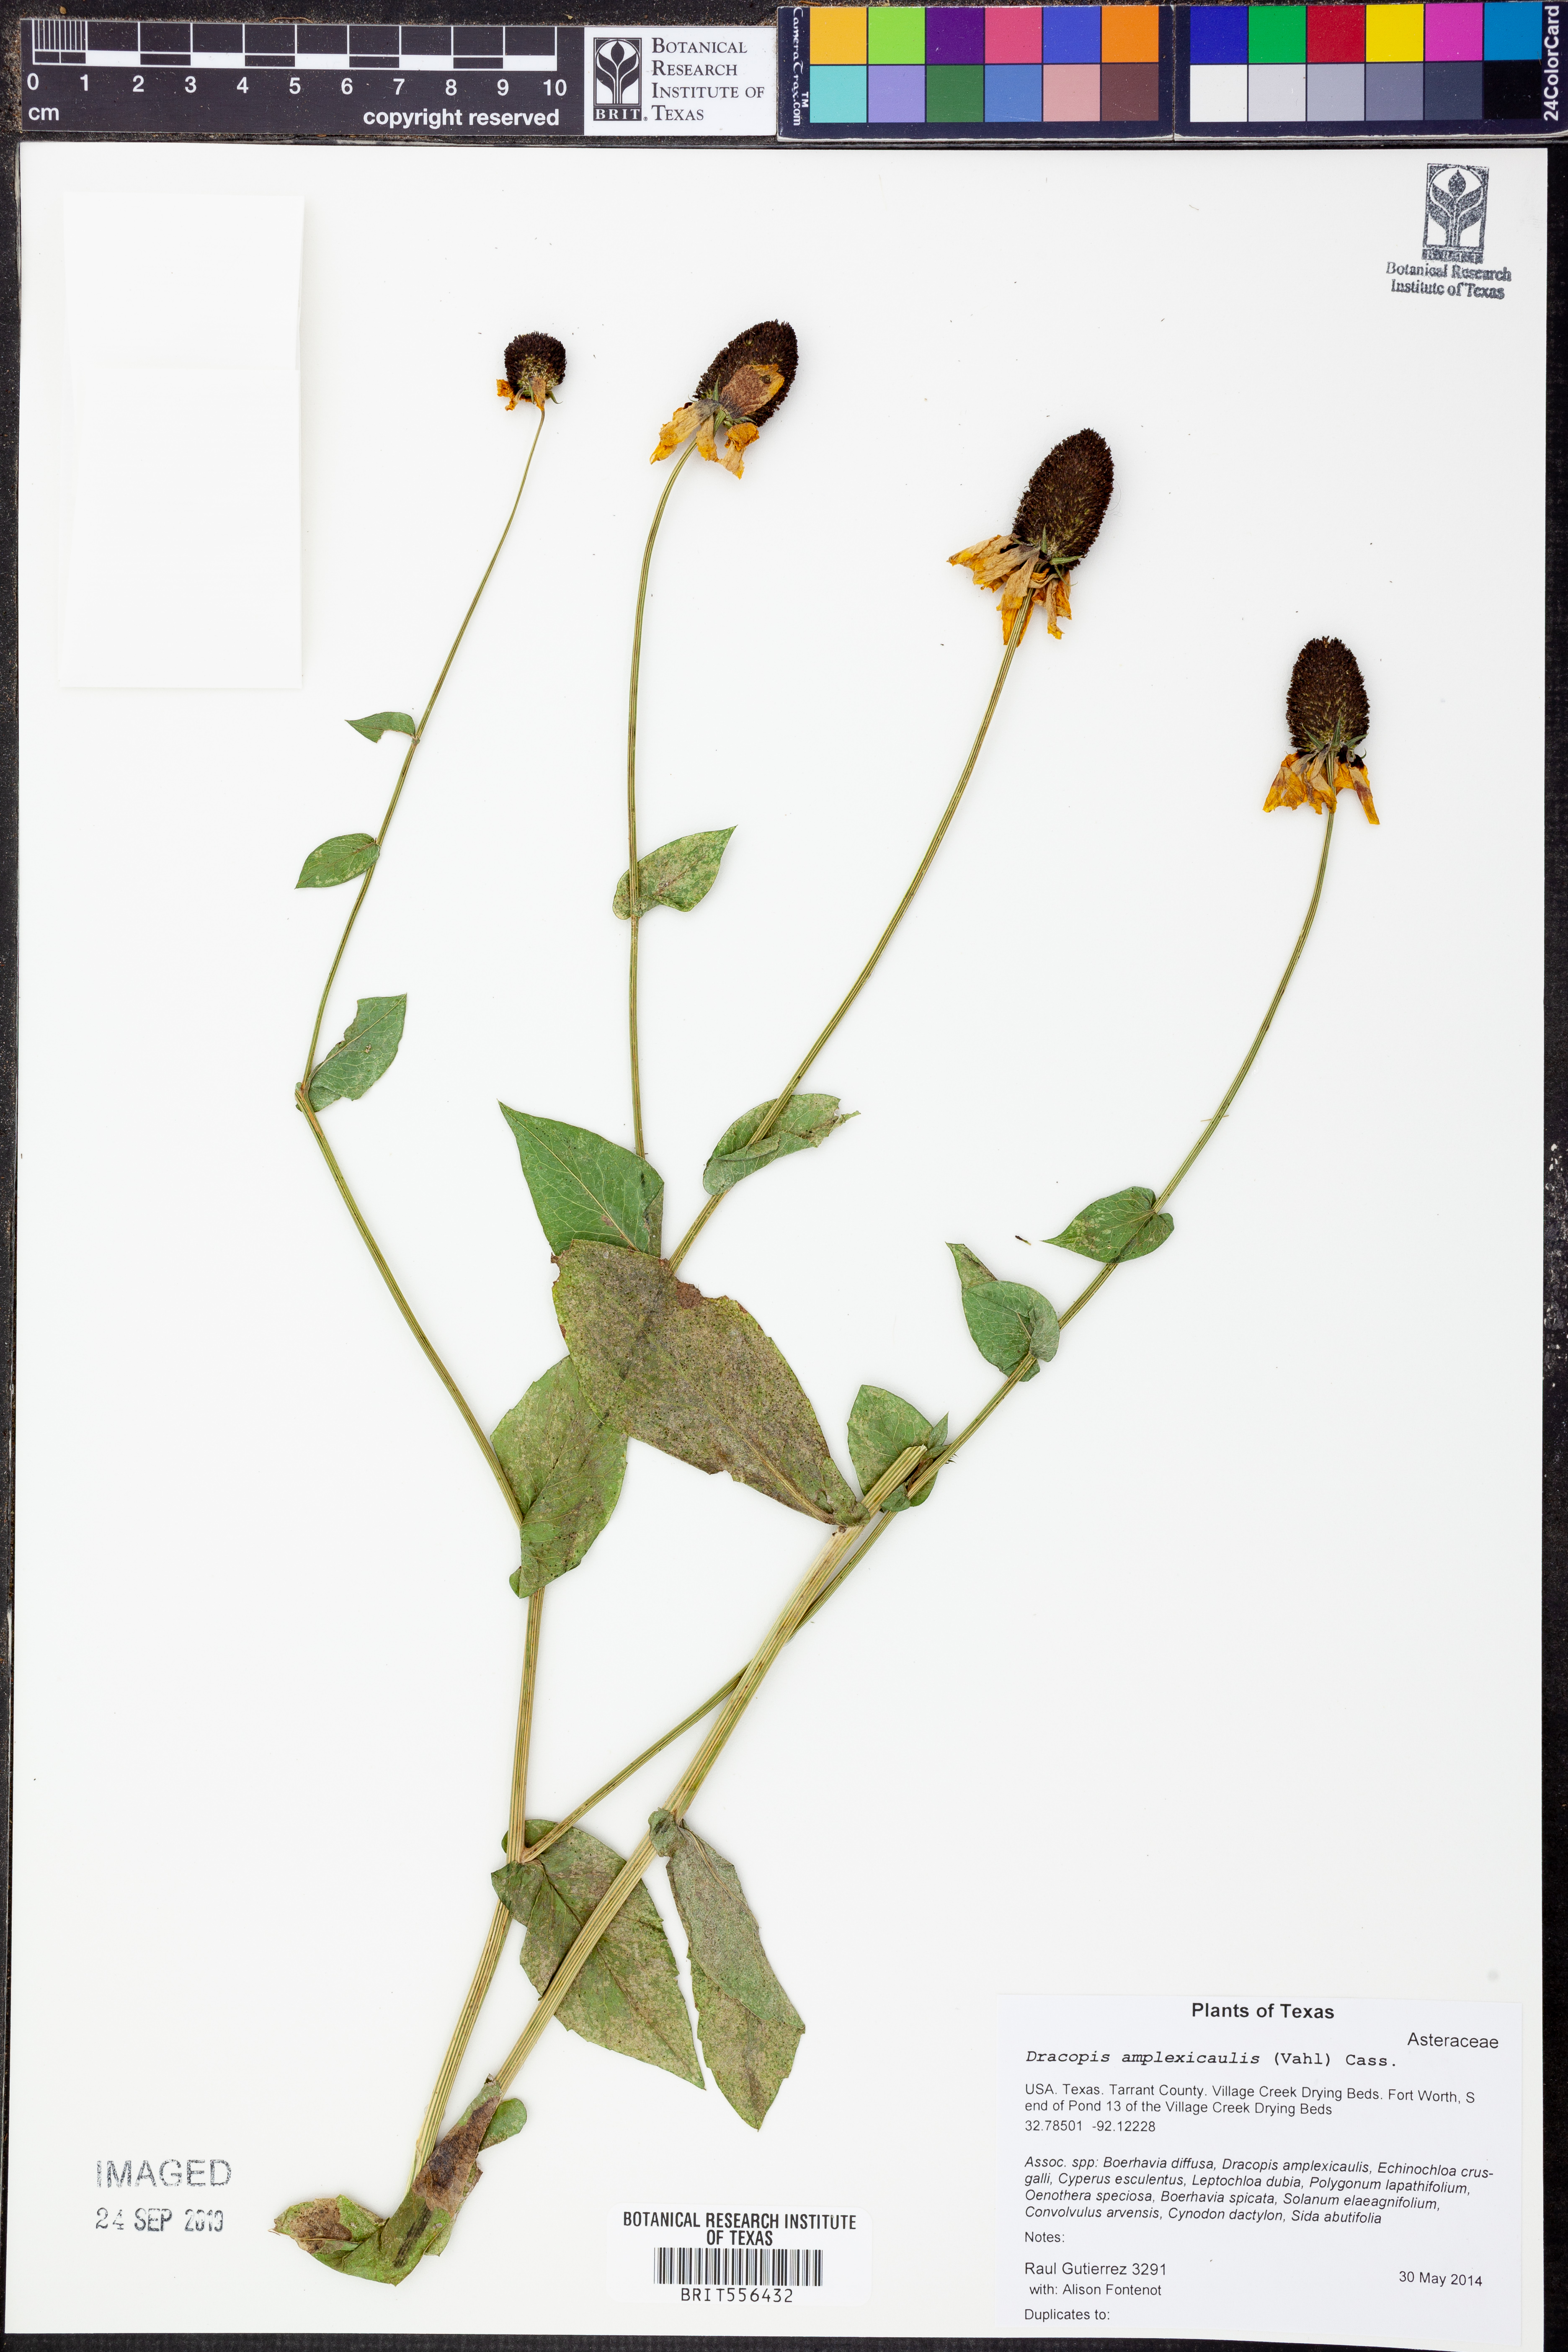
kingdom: Plantae
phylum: Tracheophyta
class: Magnoliopsida
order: Asterales
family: Asteraceae
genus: Rudbeckia
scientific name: Rudbeckia amplexicaulis
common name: Clasping-leaf coneflower
